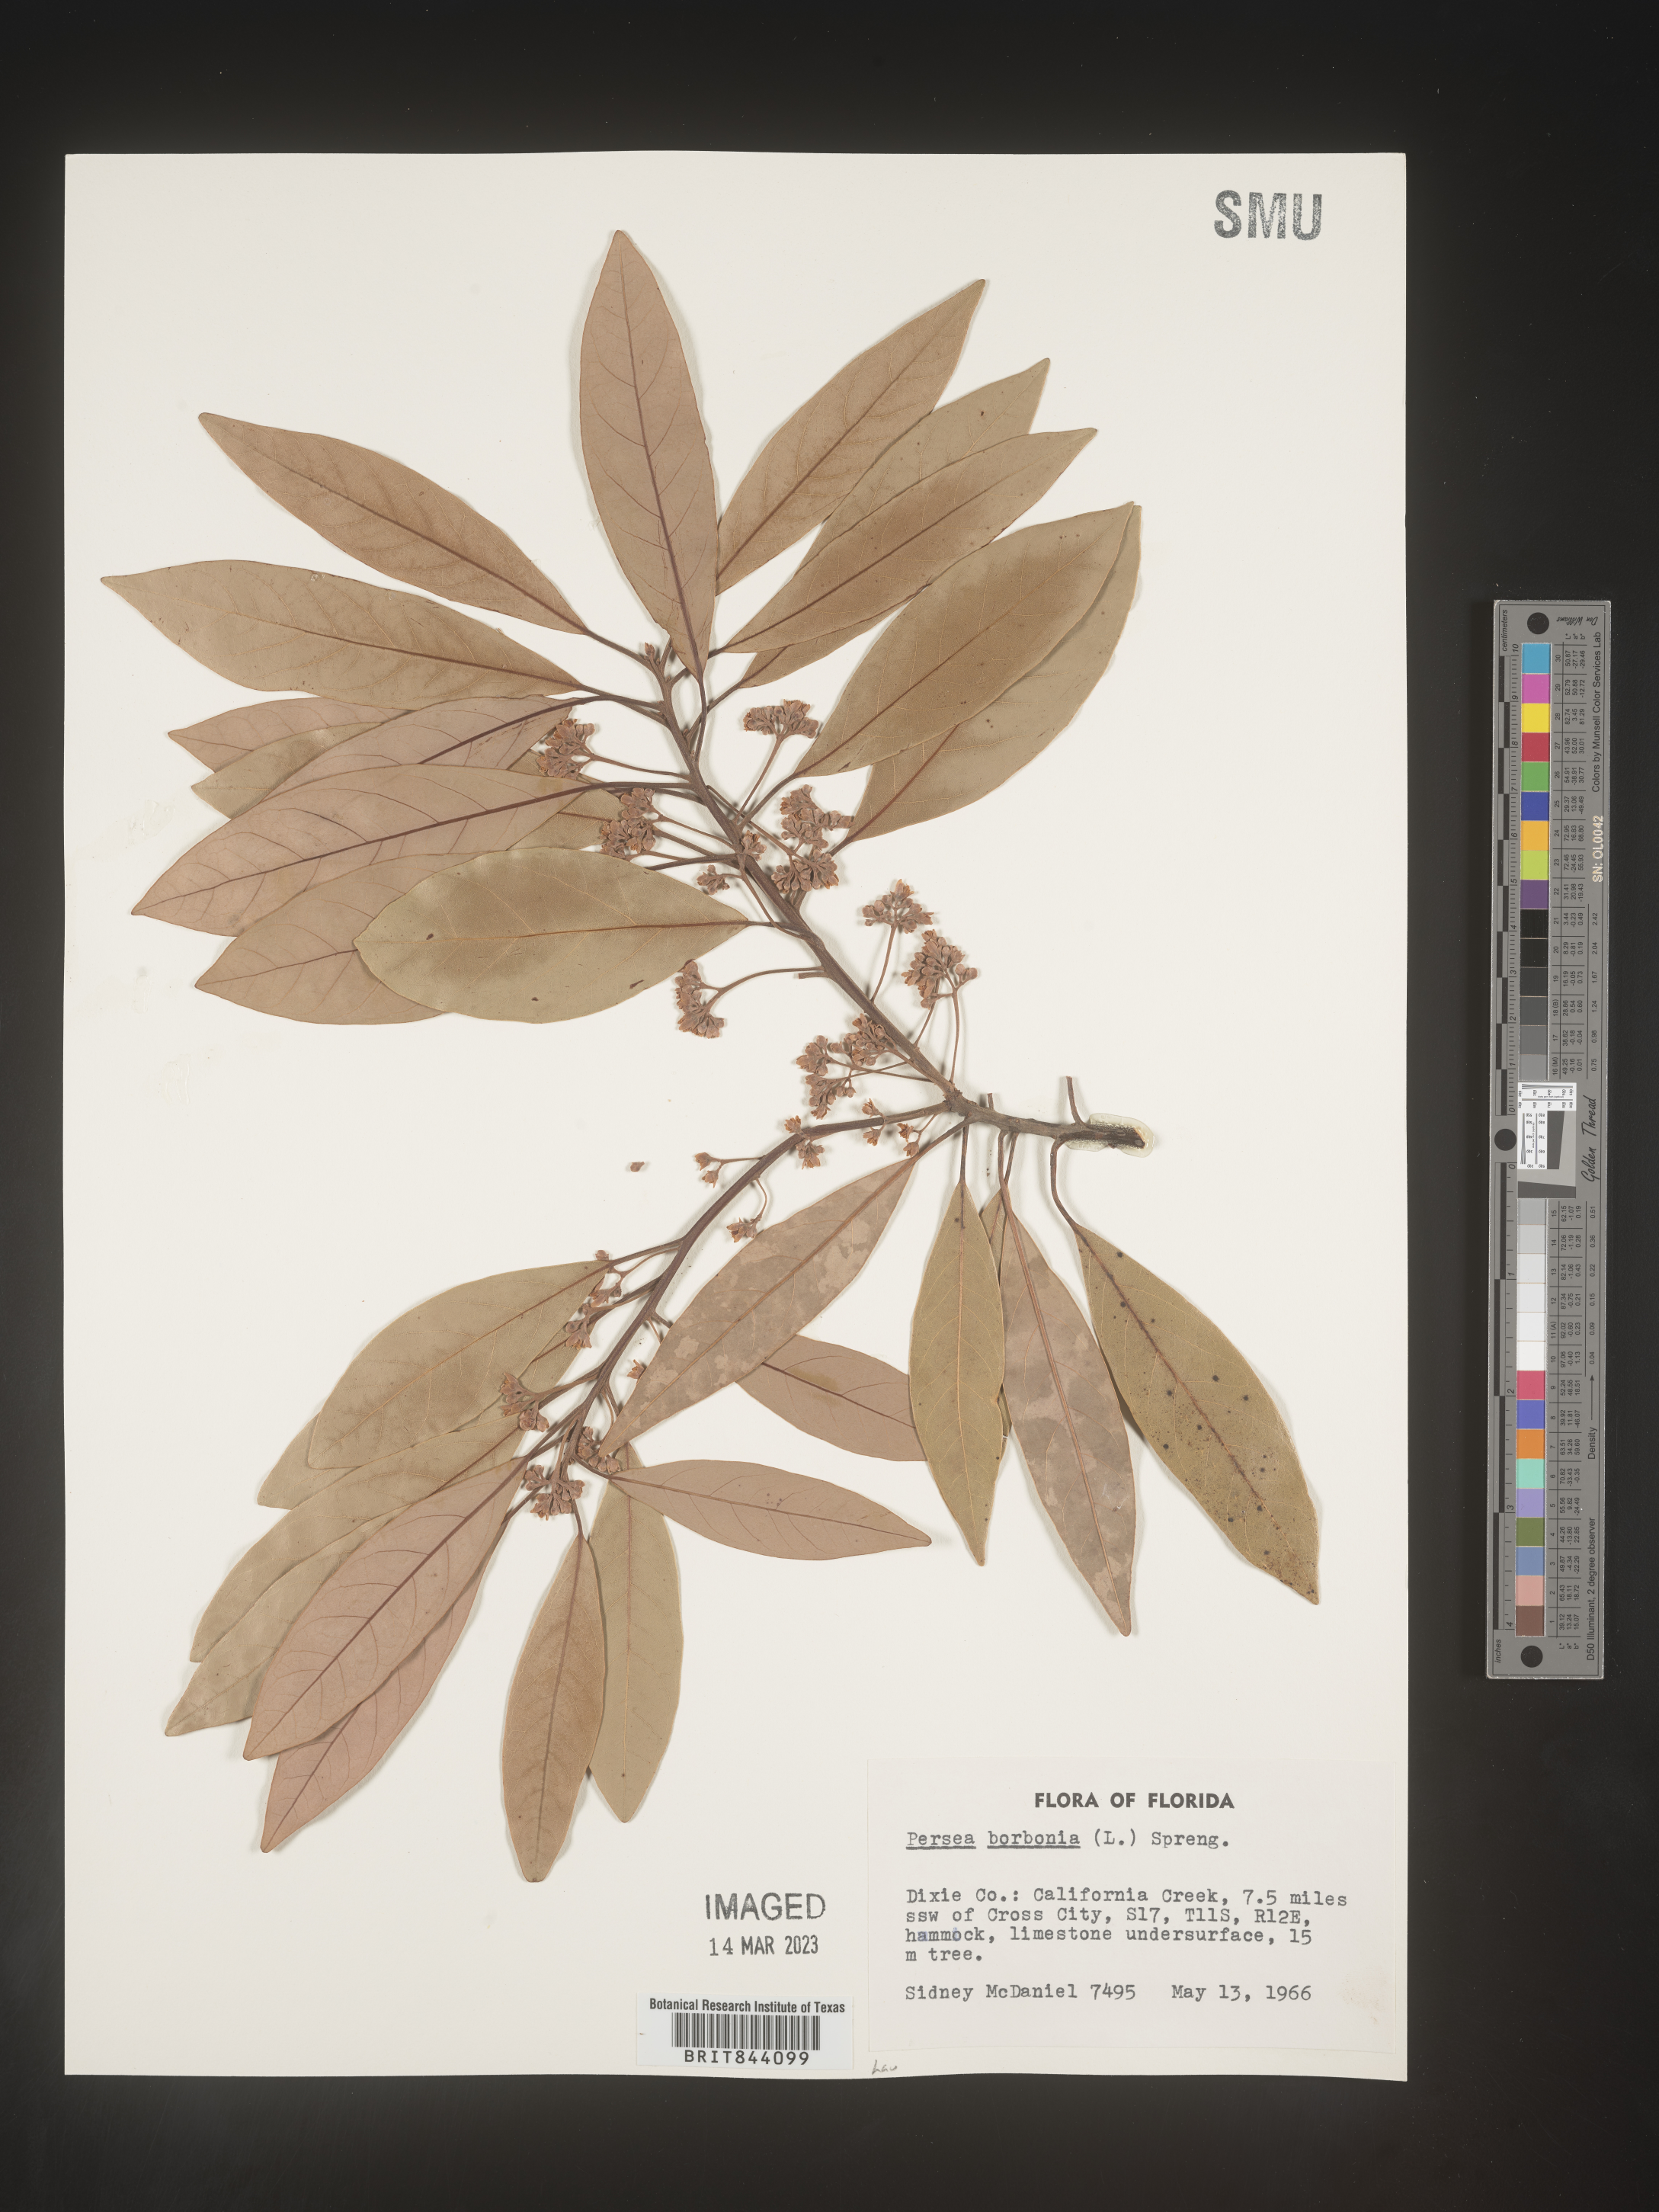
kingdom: Plantae
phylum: Tracheophyta
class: Magnoliopsida
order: Laurales
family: Lauraceae
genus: Persea
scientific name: Persea borbonia
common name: Redbay
